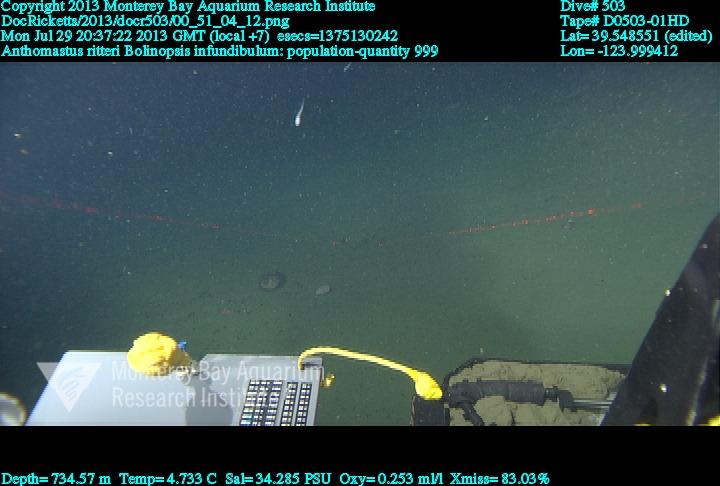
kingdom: Animalia
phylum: Cnidaria
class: Anthozoa
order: Scleralcyonacea
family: Coralliidae
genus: Heteropolypus
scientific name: Heteropolypus ritteri
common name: Ritter's soft coral
